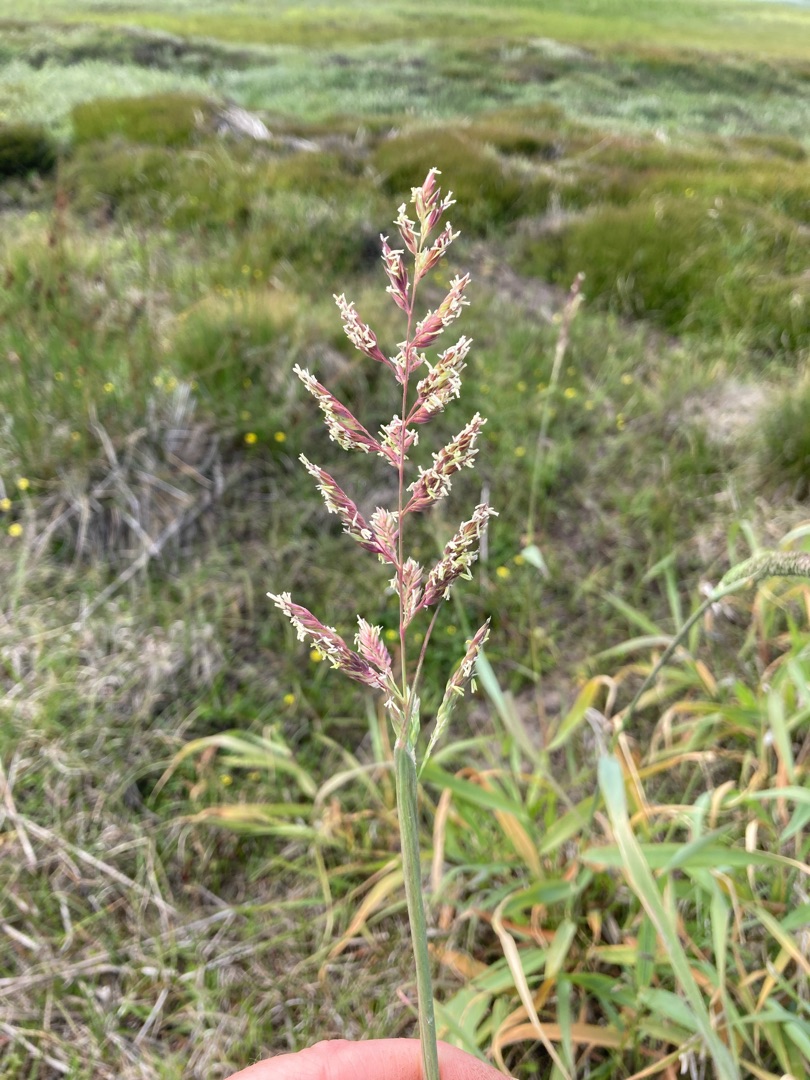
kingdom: Plantae
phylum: Tracheophyta
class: Liliopsida
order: Poales
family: Poaceae
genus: Phalaris
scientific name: Phalaris arundinacea
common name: Rørgræs
